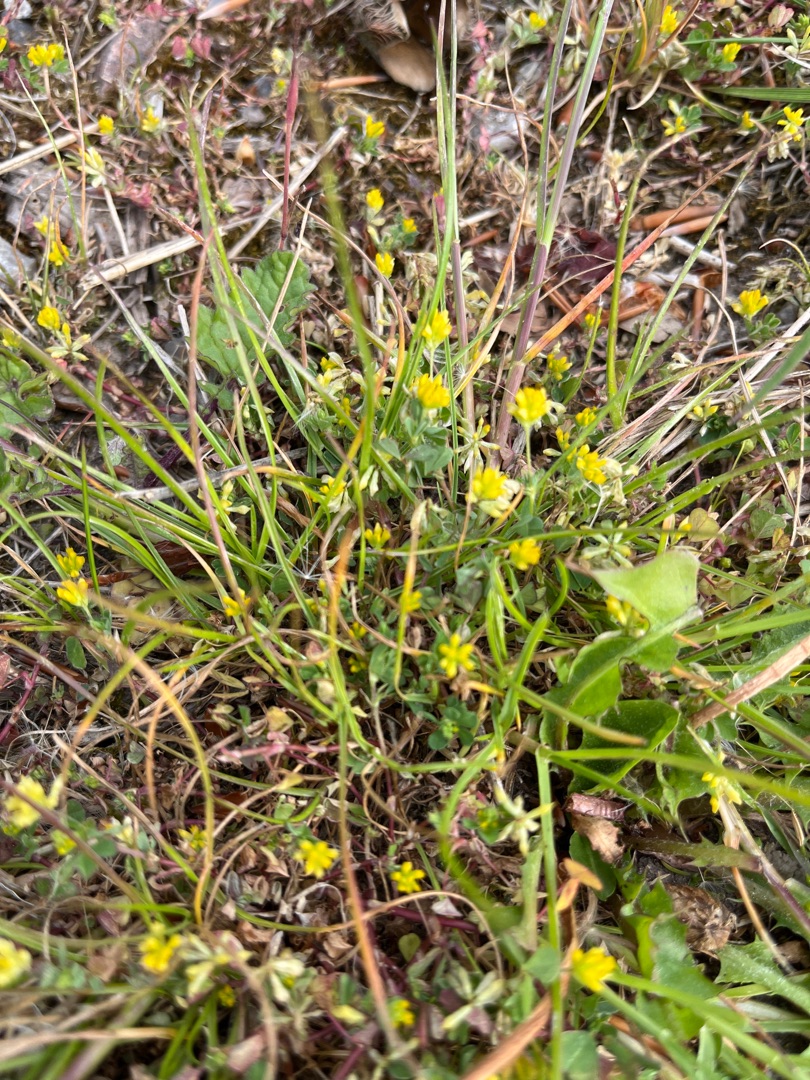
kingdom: Plantae
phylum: Tracheophyta
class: Magnoliopsida
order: Fabales
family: Fabaceae
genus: Trifolium
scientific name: Trifolium dubium
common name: Fin kløver
